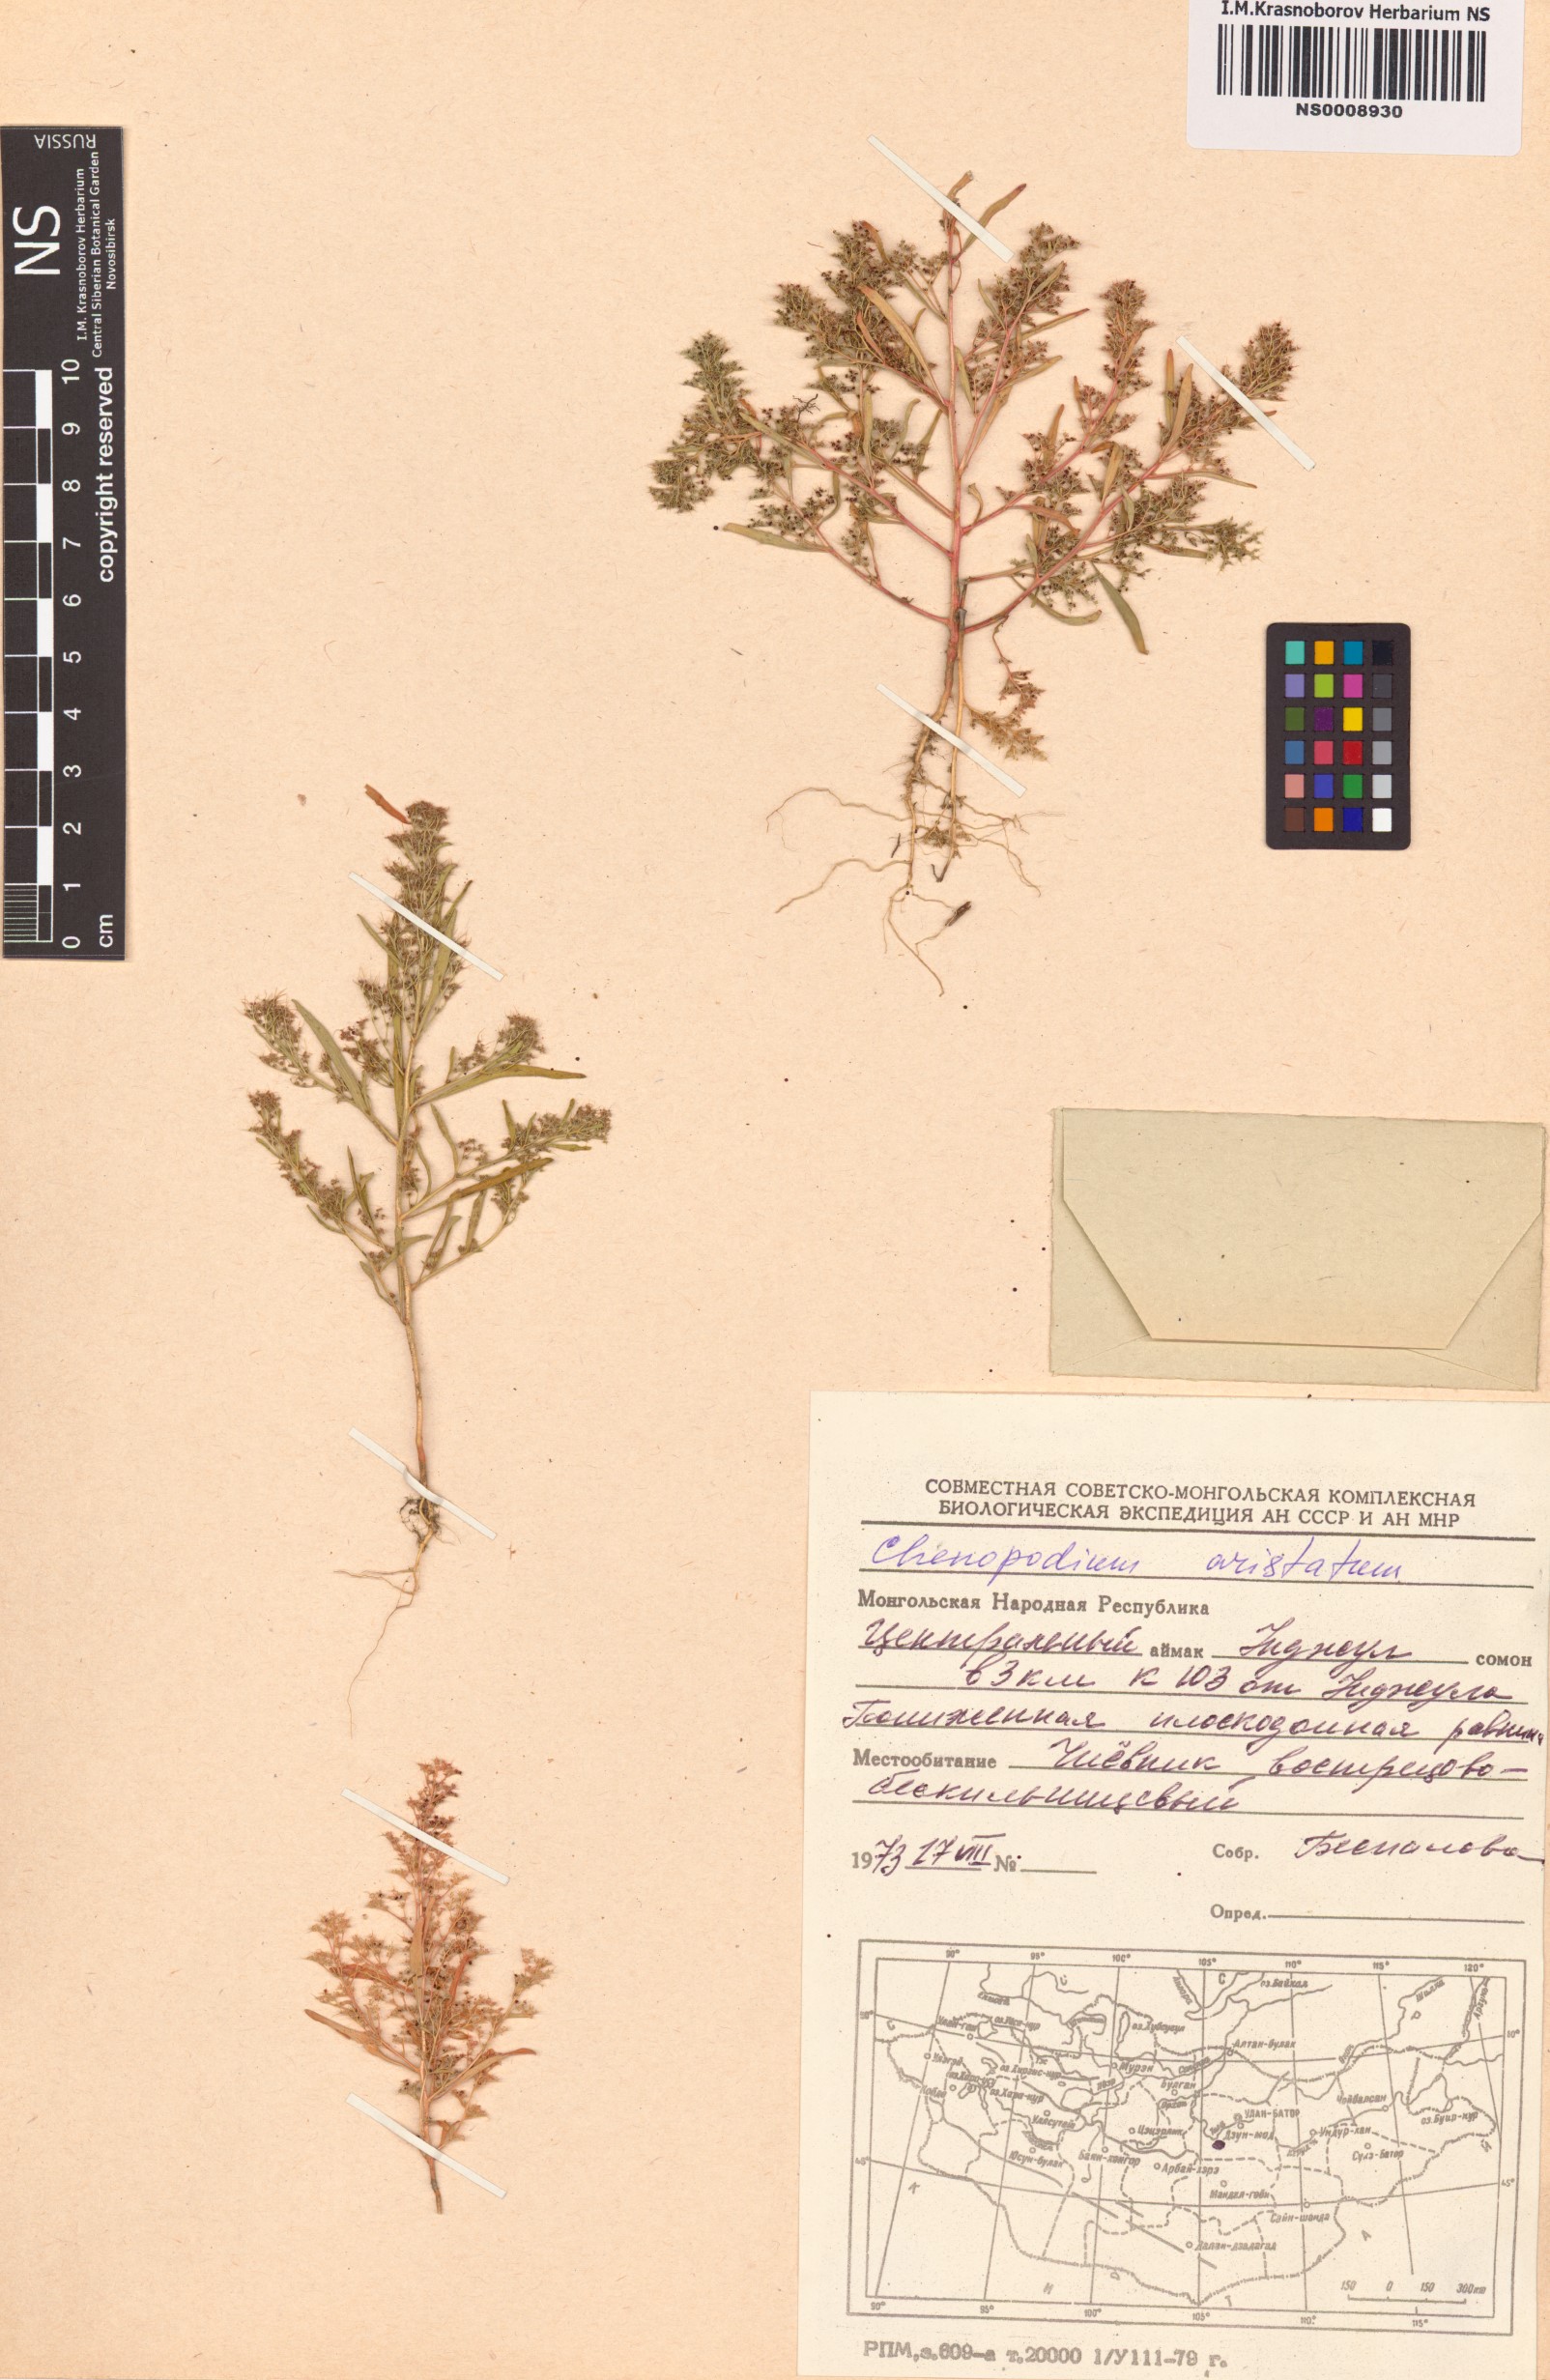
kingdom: Plantae
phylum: Tracheophyta
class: Magnoliopsida
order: Caryophyllales
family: Amaranthaceae
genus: Teloxys
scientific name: Teloxys aristata
